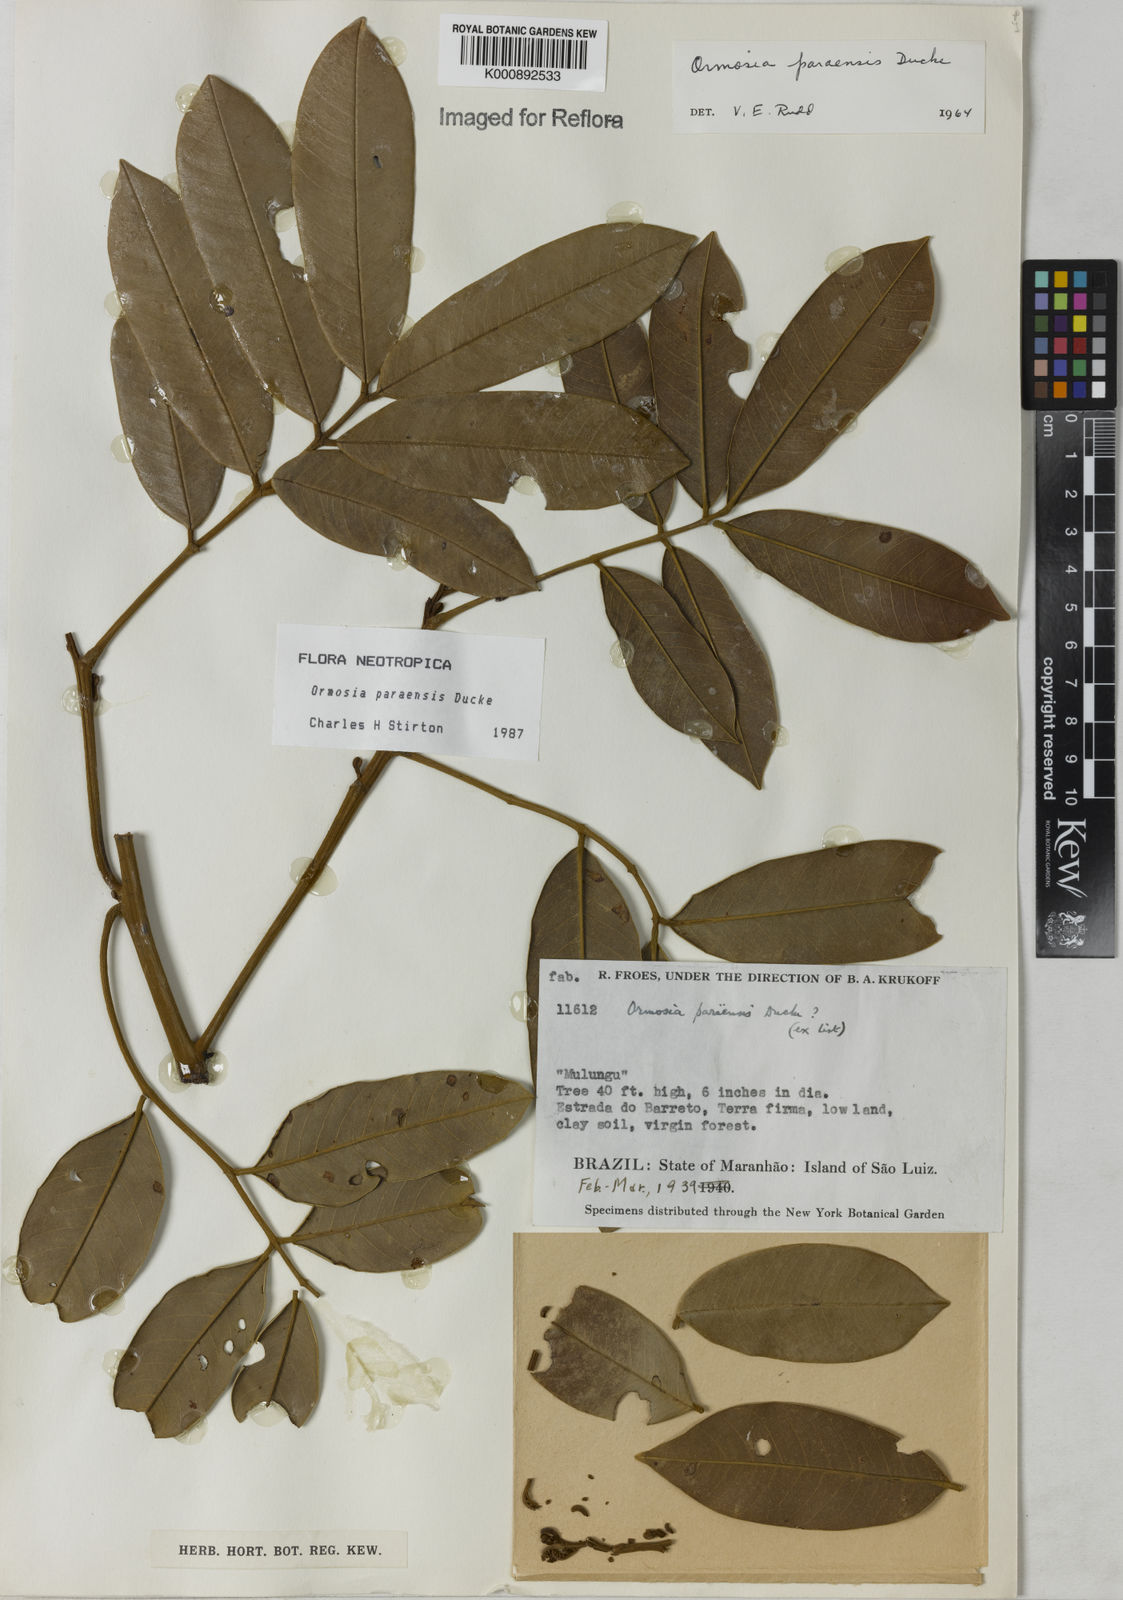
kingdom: Plantae
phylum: Tracheophyta
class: Magnoliopsida
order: Fabales
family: Fabaceae
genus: Ormosia
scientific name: Ormosia paraensis
